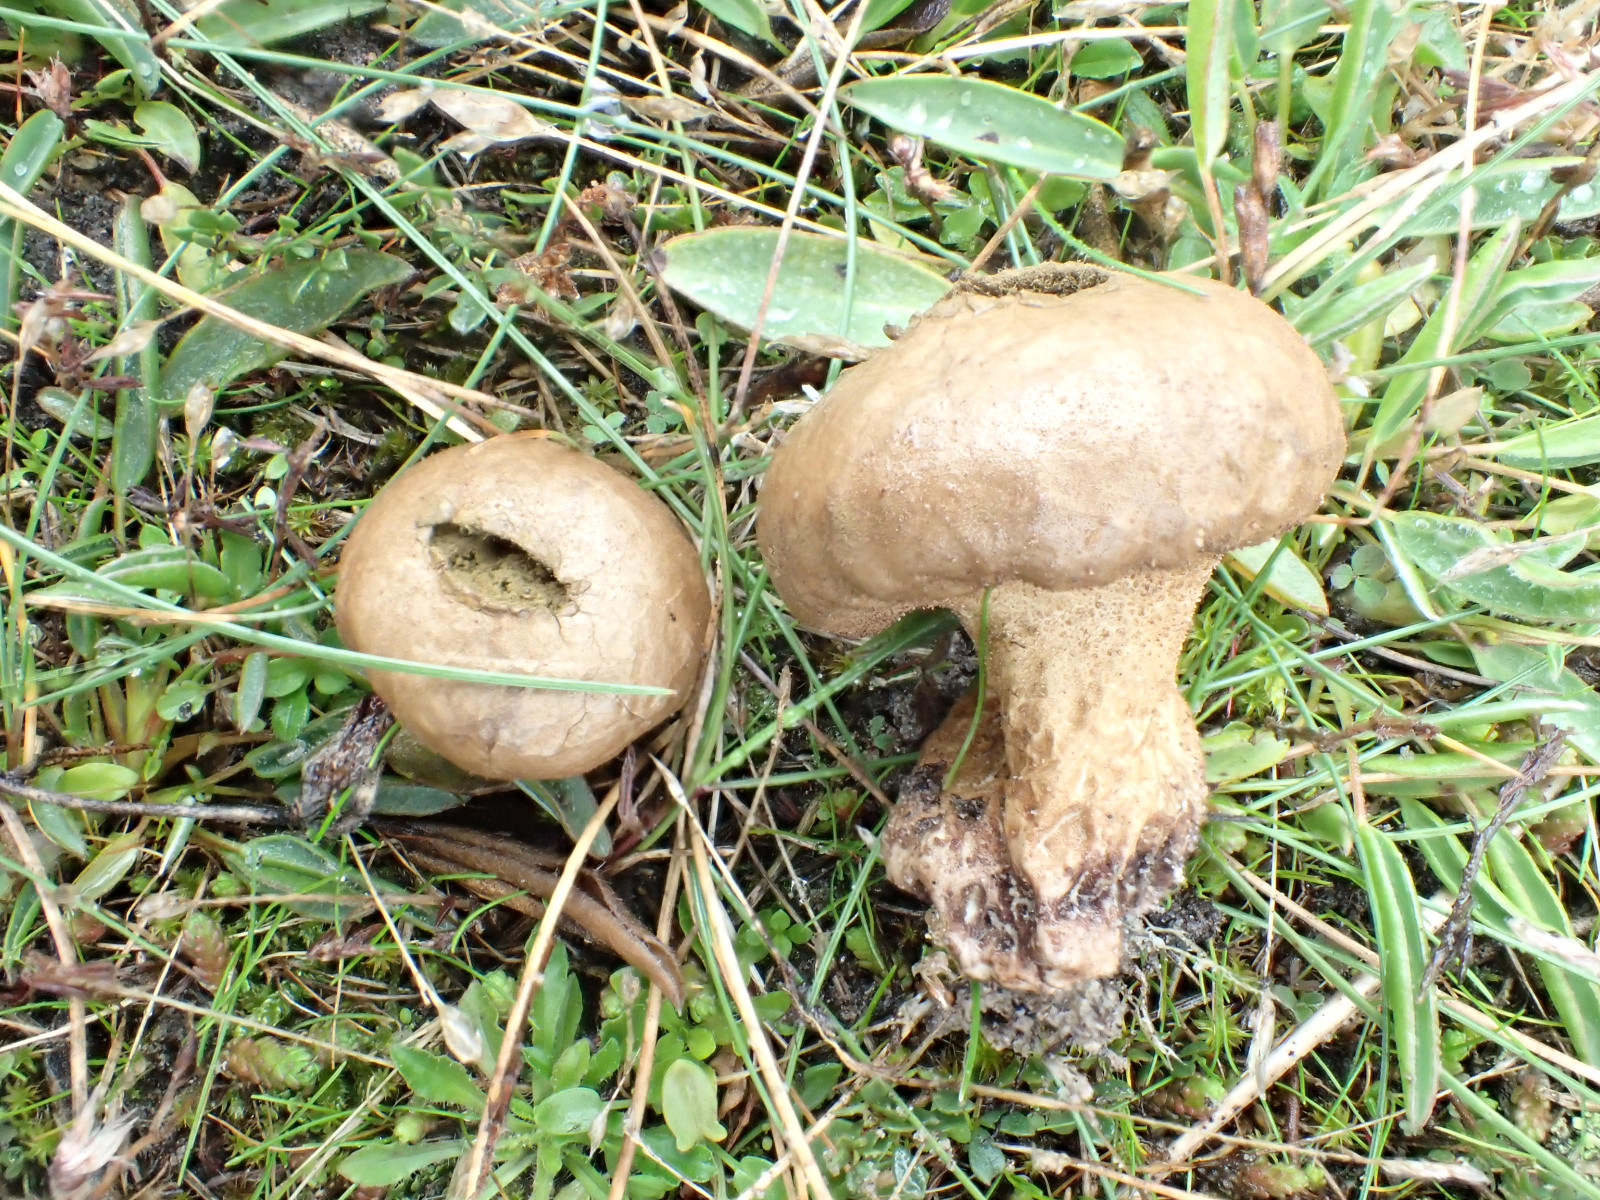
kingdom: Fungi
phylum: Basidiomycota
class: Agaricomycetes
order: Agaricales
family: Agaricaceae
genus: Lycoperdon
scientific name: Lycoperdon
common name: støvbold
